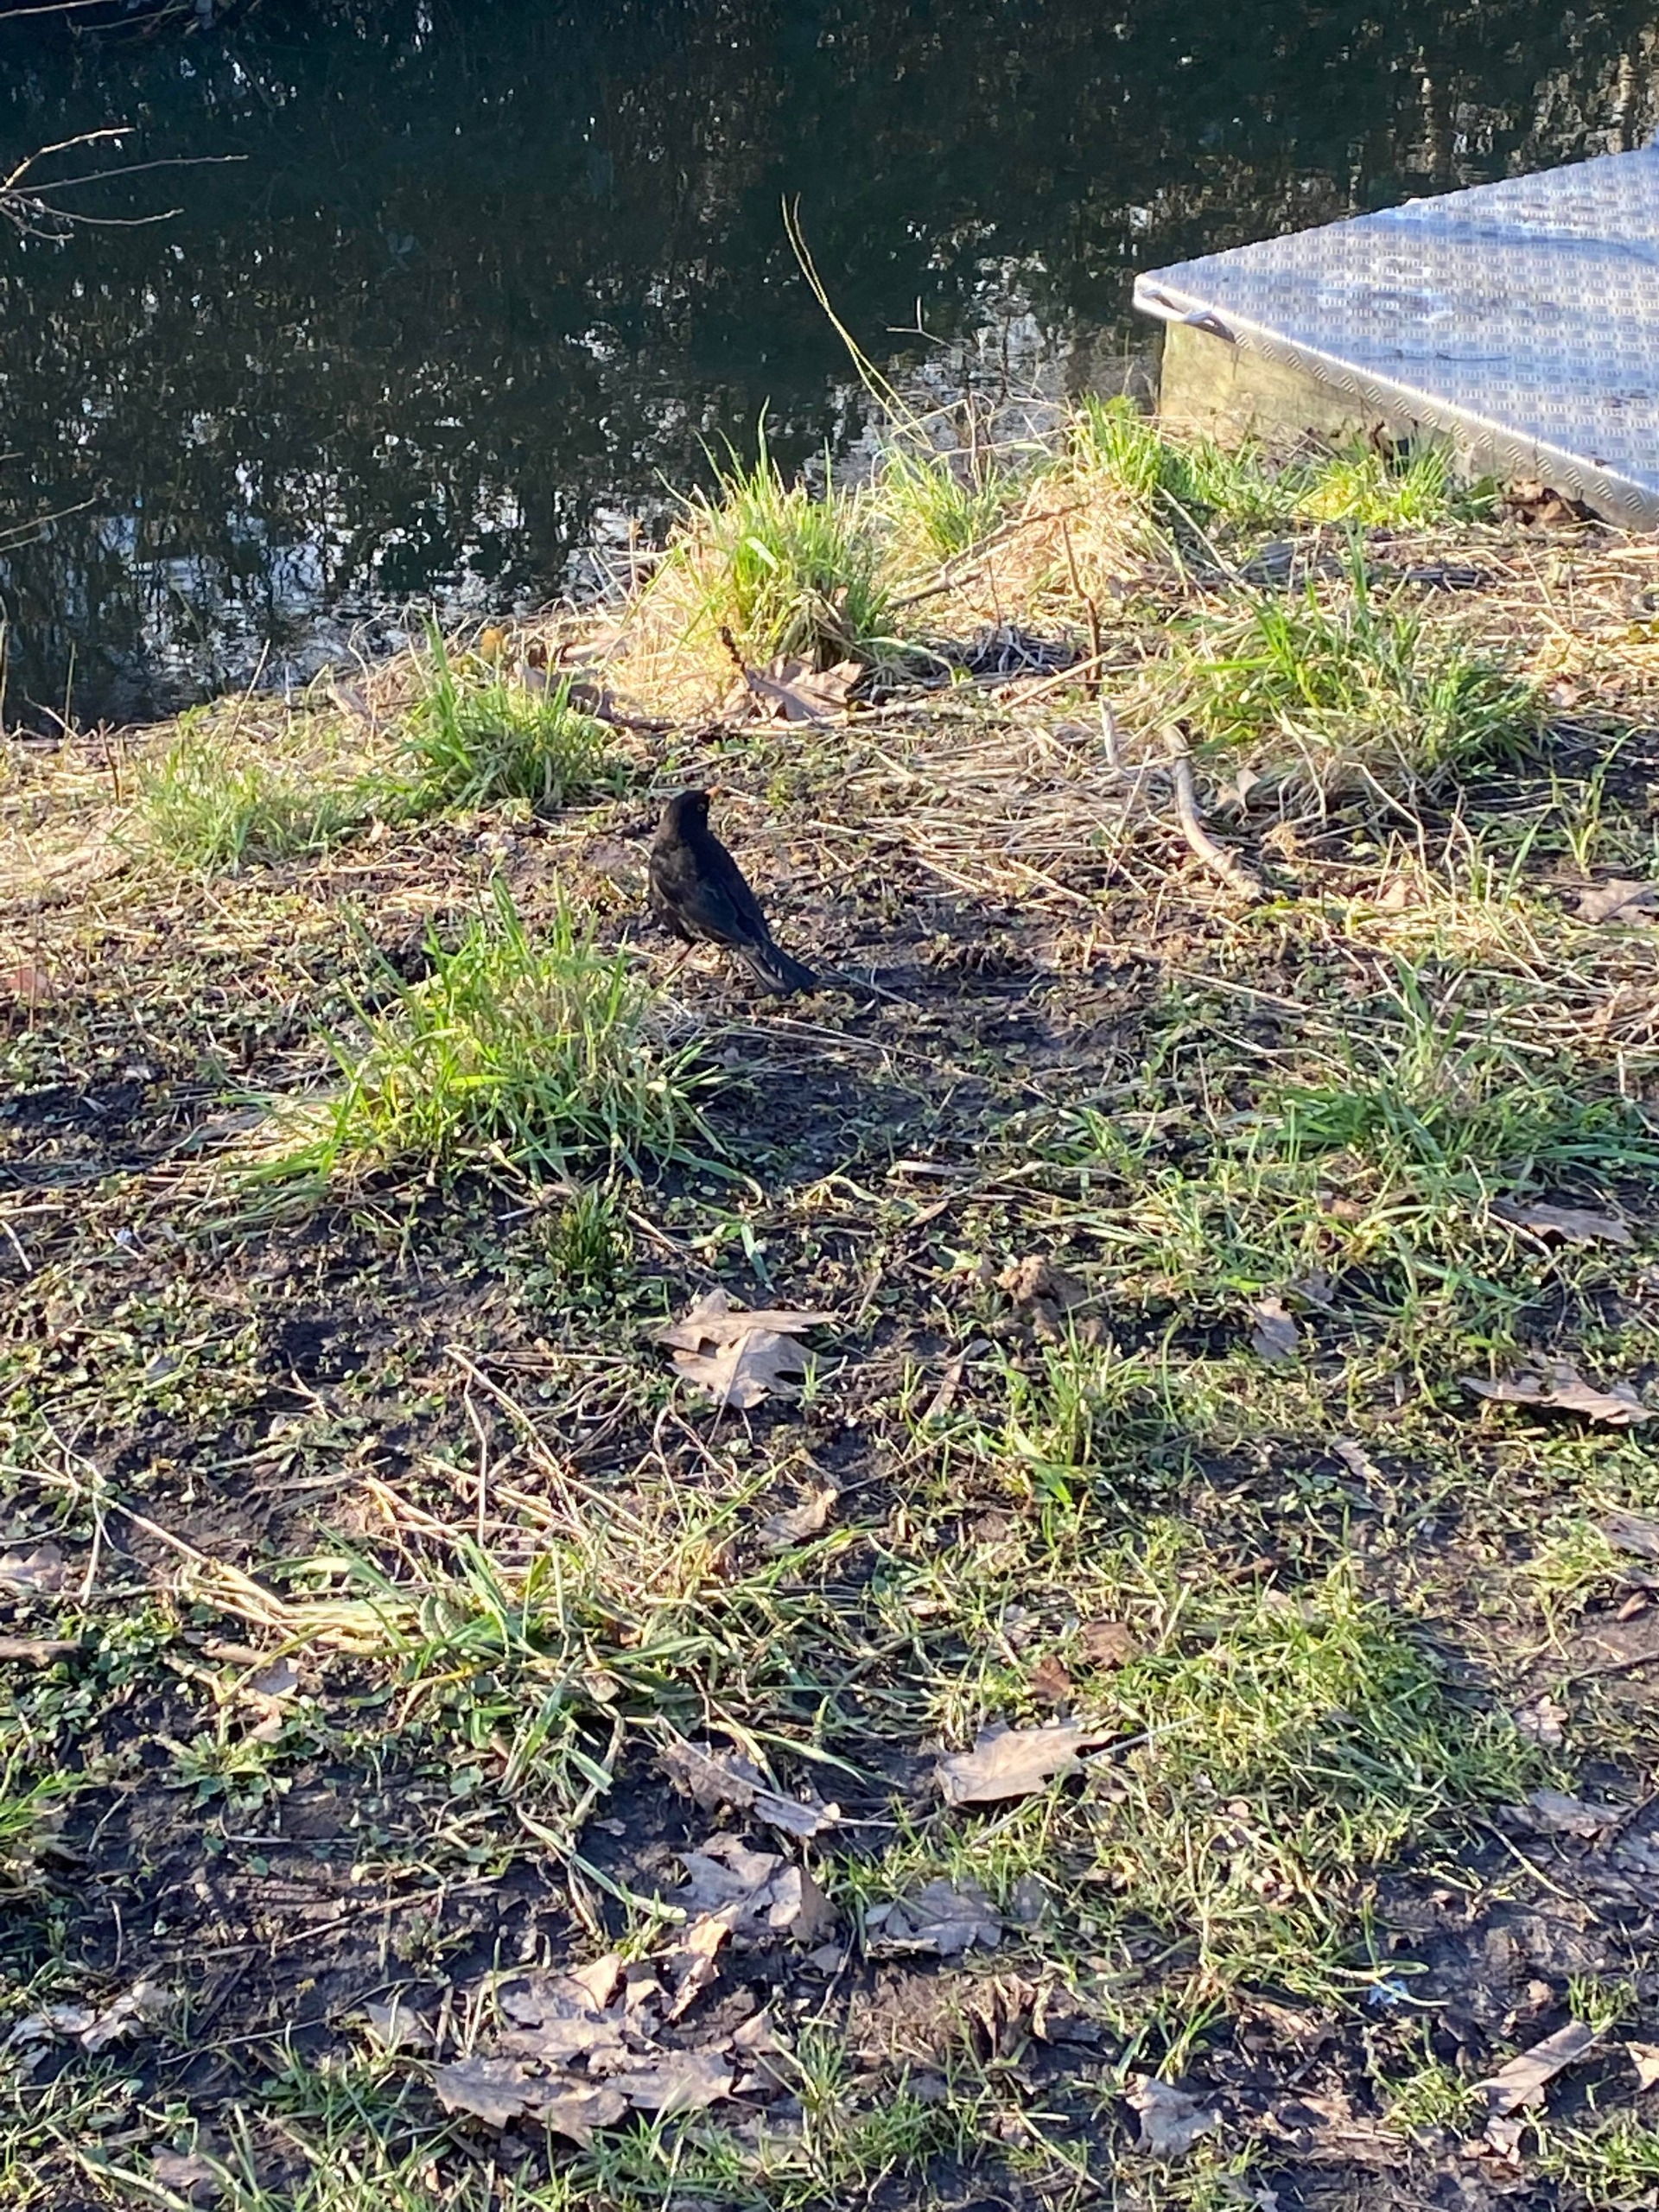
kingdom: Animalia
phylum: Chordata
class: Aves
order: Passeriformes
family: Turdidae
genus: Turdus
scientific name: Turdus merula
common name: Solsort
